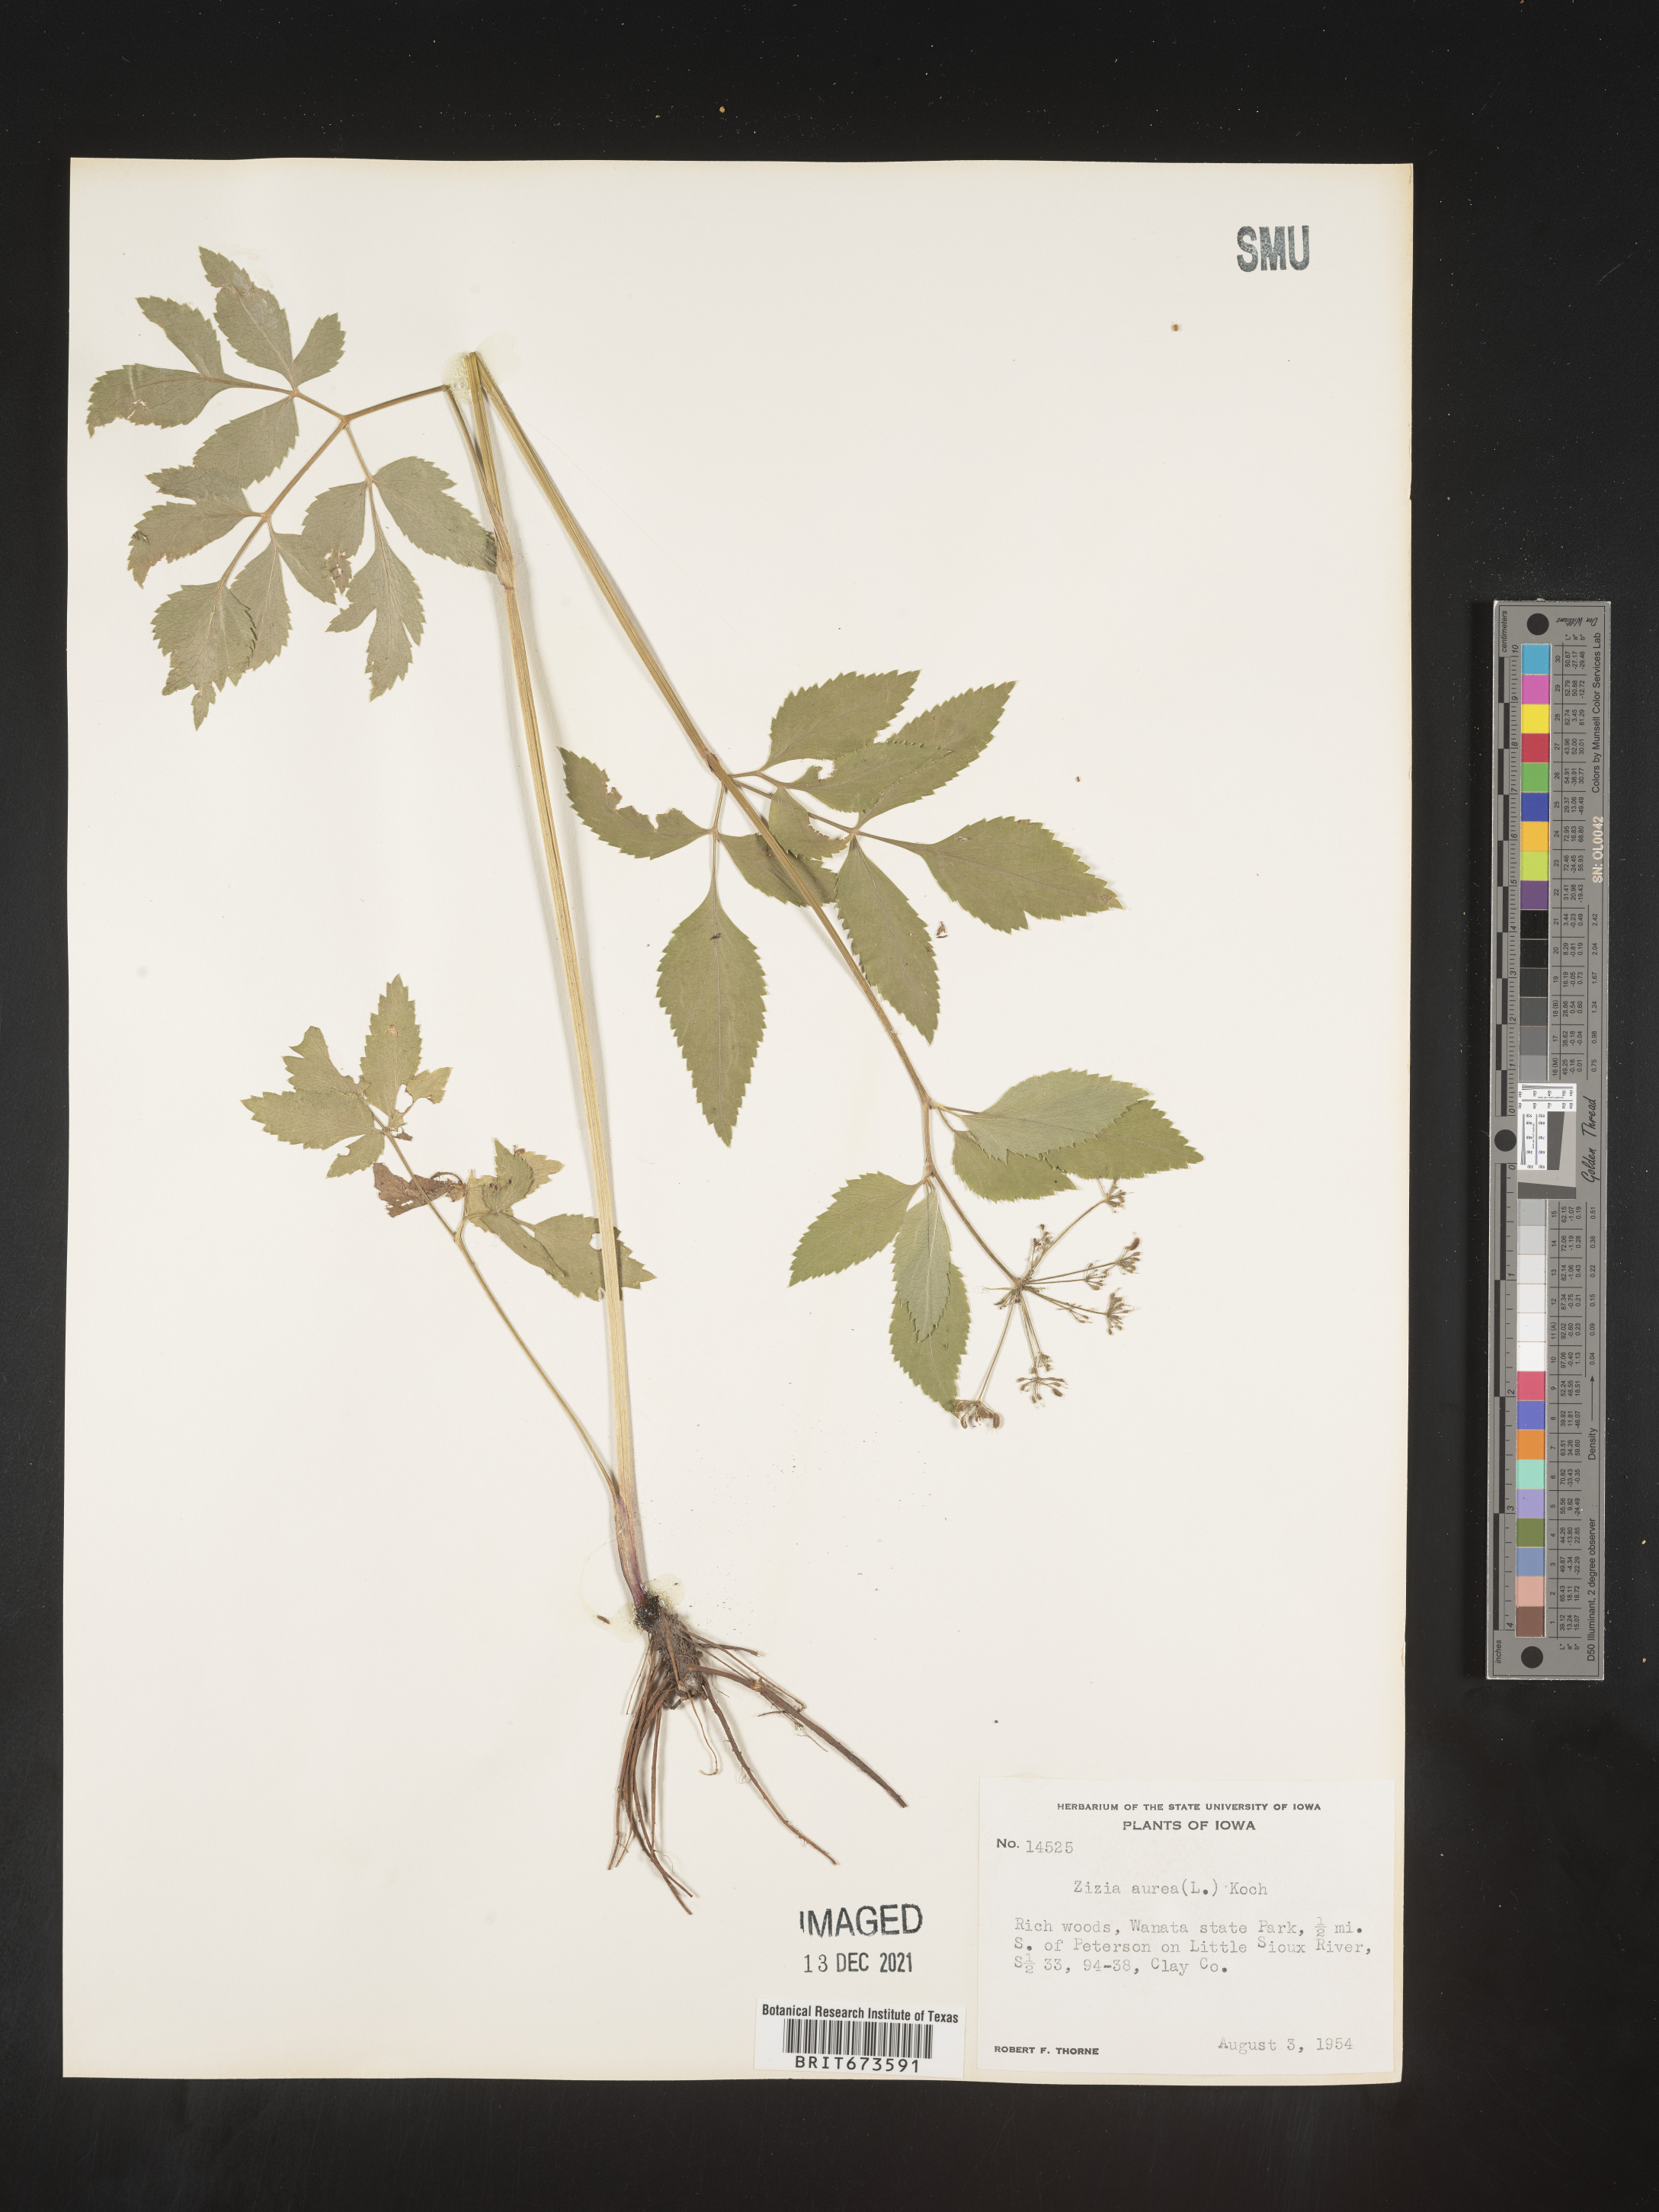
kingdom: Plantae
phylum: Tracheophyta
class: Magnoliopsida
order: Apiales
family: Apiaceae
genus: Zizia
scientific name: Zizia aurea
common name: Golden alexanders
